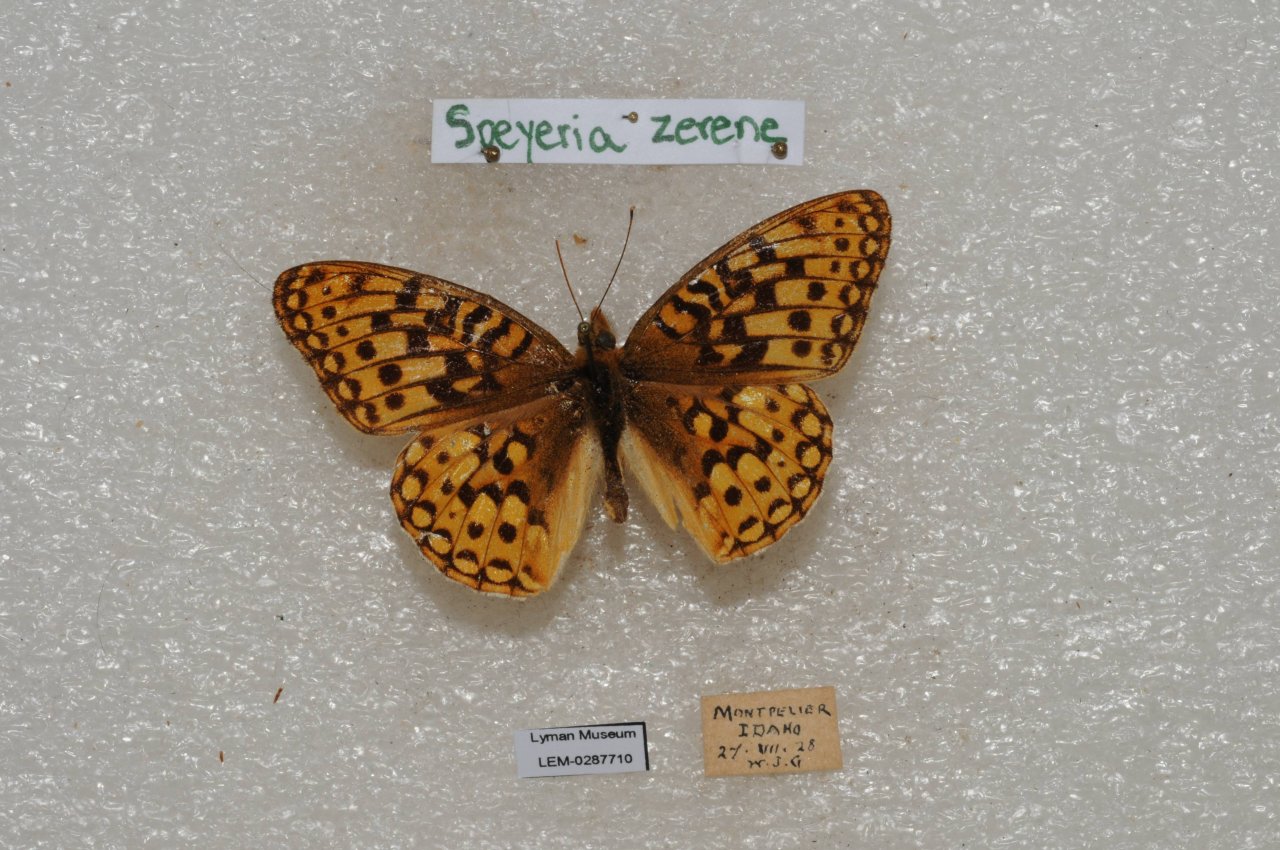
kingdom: Animalia
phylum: Arthropoda
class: Insecta
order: Lepidoptera
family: Nymphalidae
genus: Speyeria
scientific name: Speyeria zerene
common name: Zerene Fritillary
